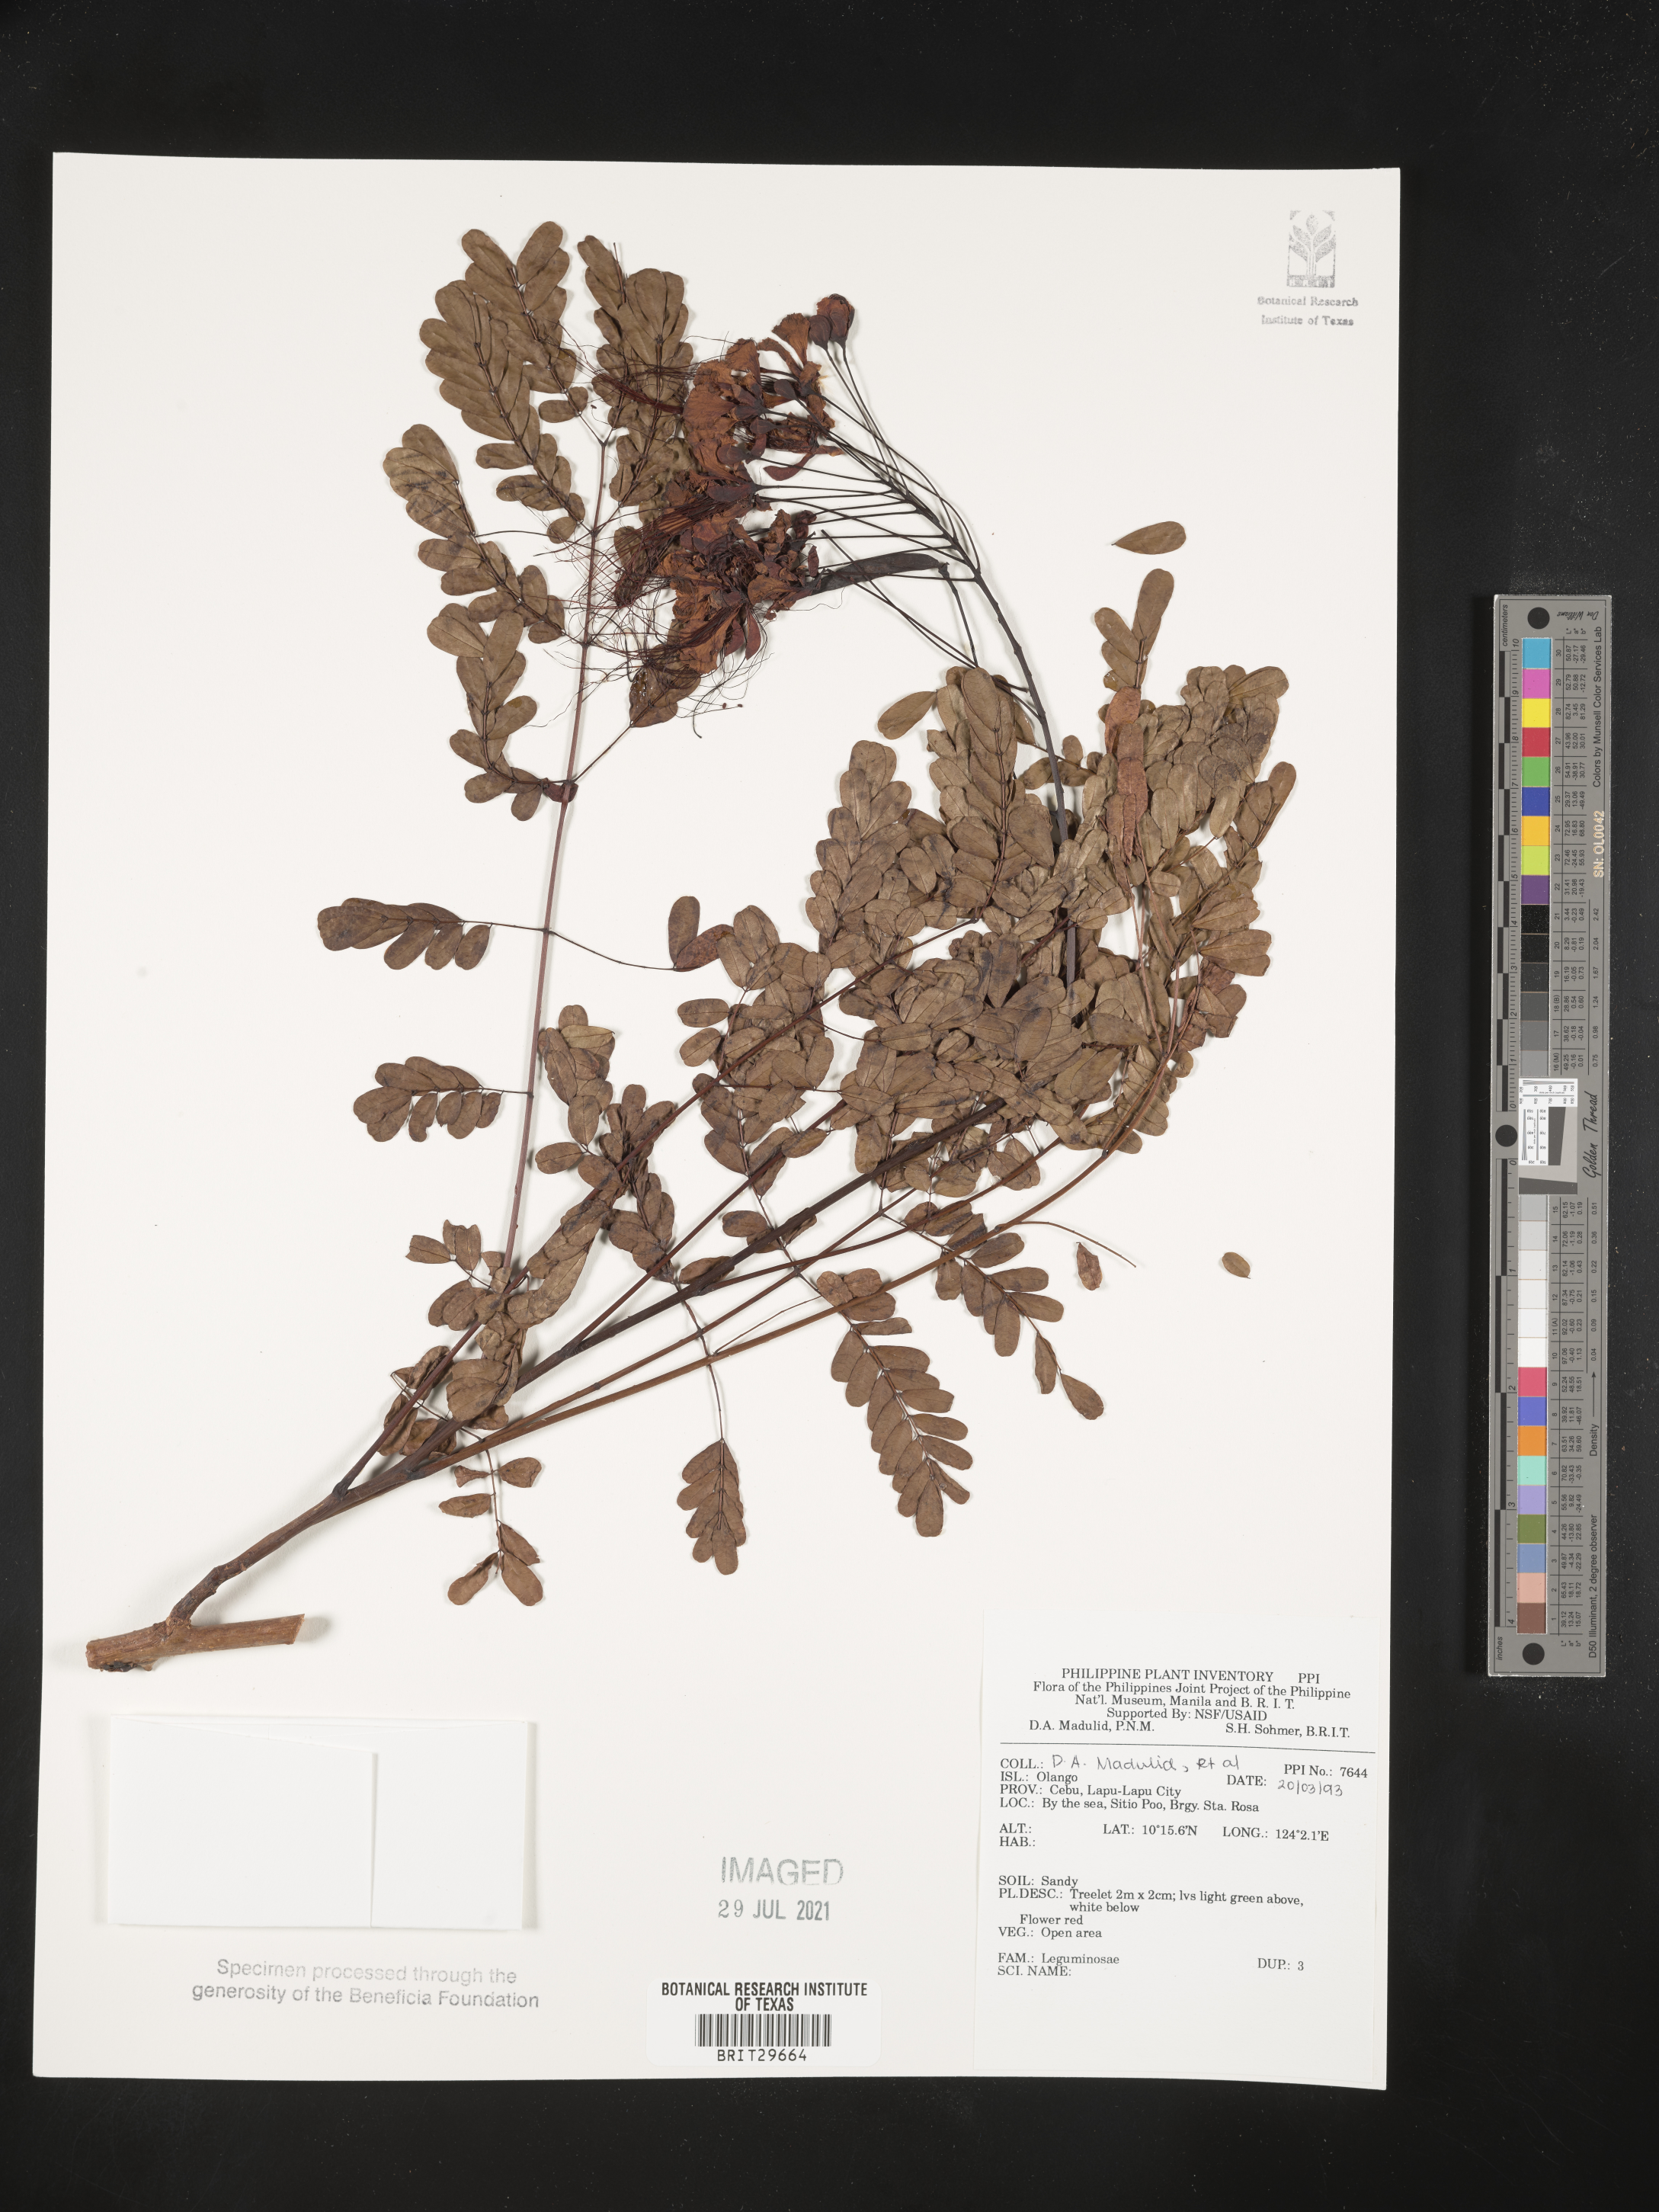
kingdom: Plantae
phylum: Tracheophyta
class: Magnoliopsida
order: Fabales
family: Fabaceae
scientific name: Fabaceae
